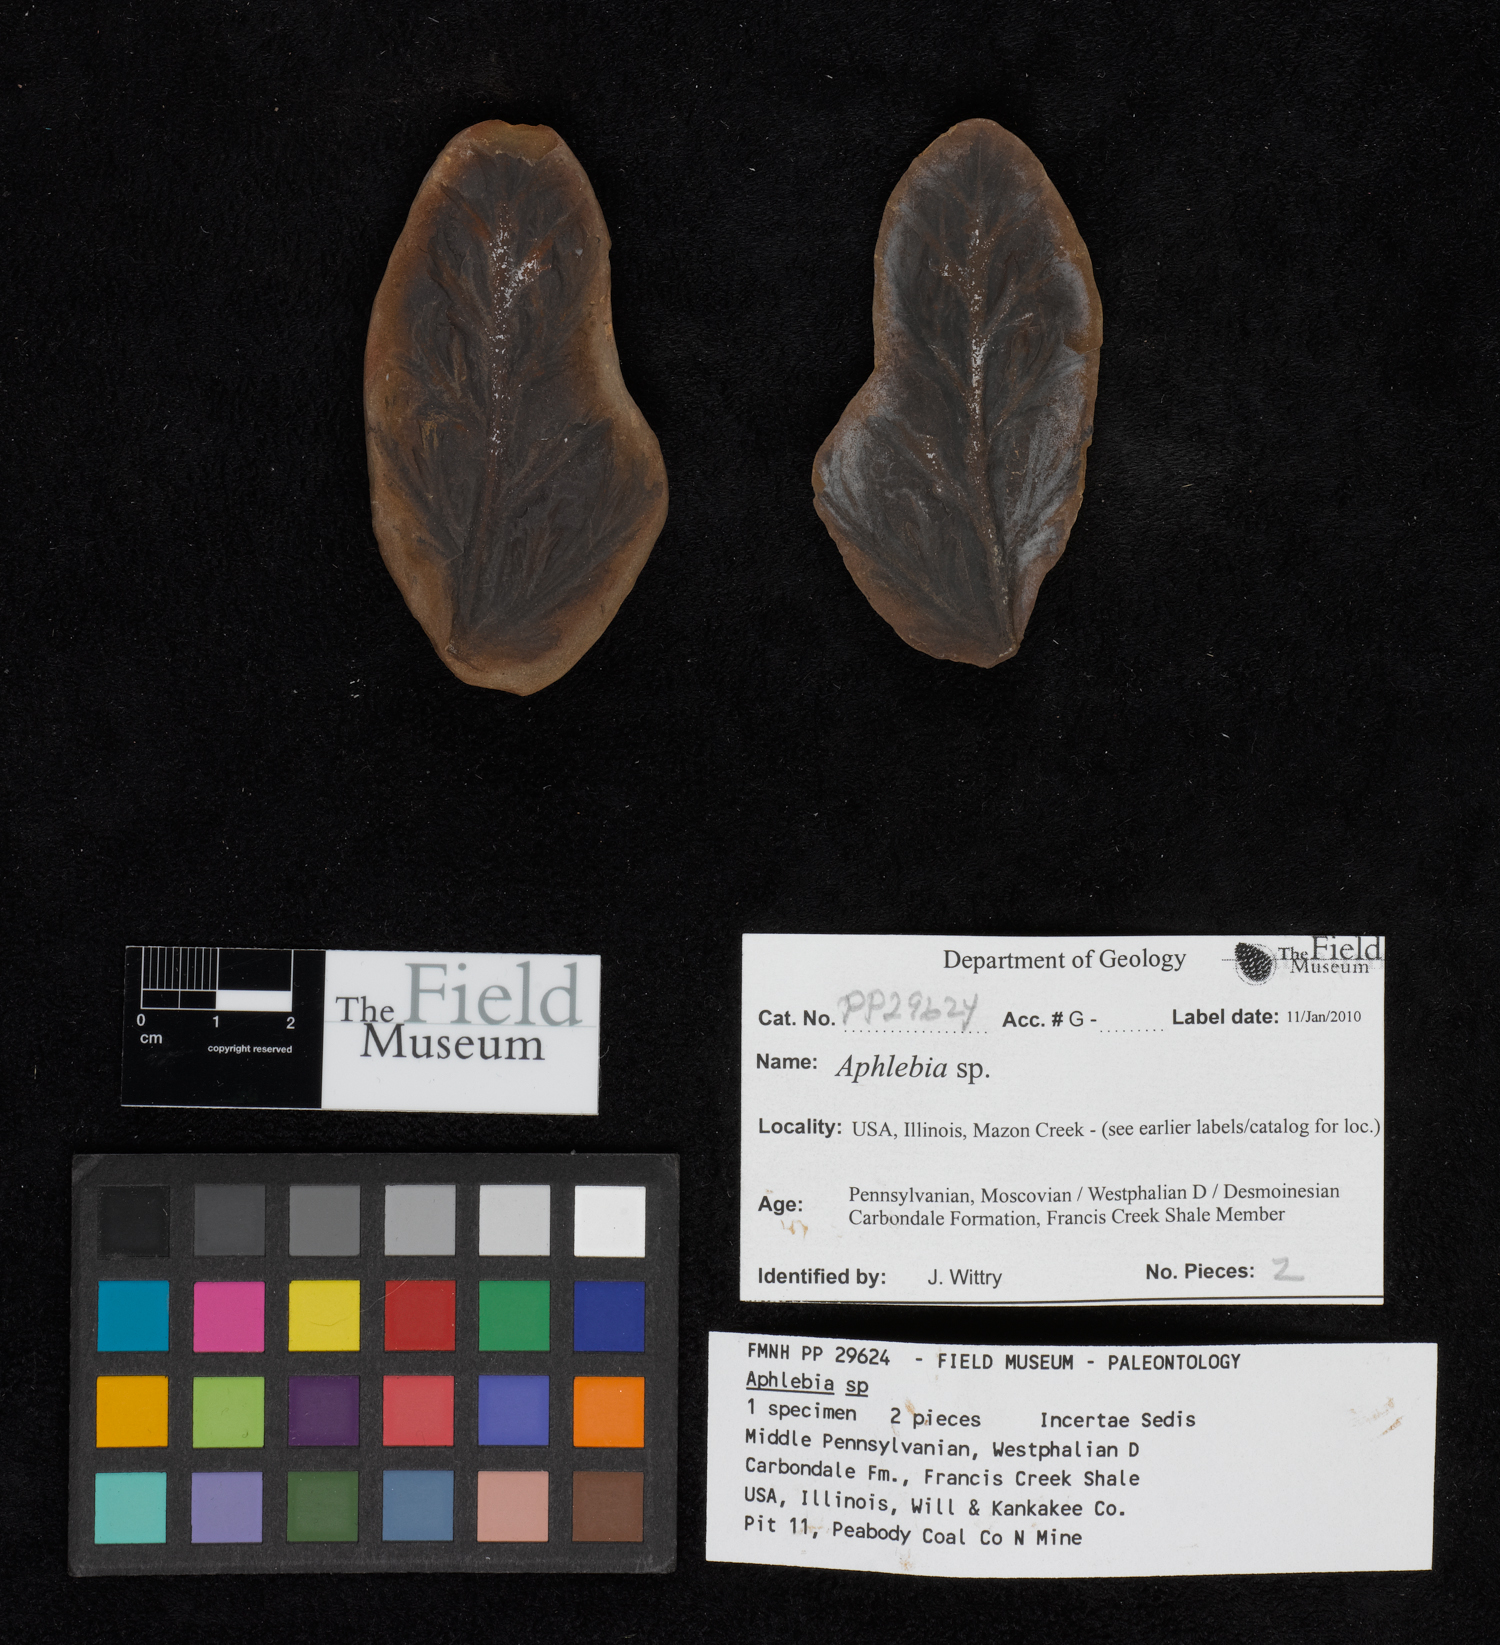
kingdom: Plantae
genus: Rhacophyllum
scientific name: Rhacophyllum
